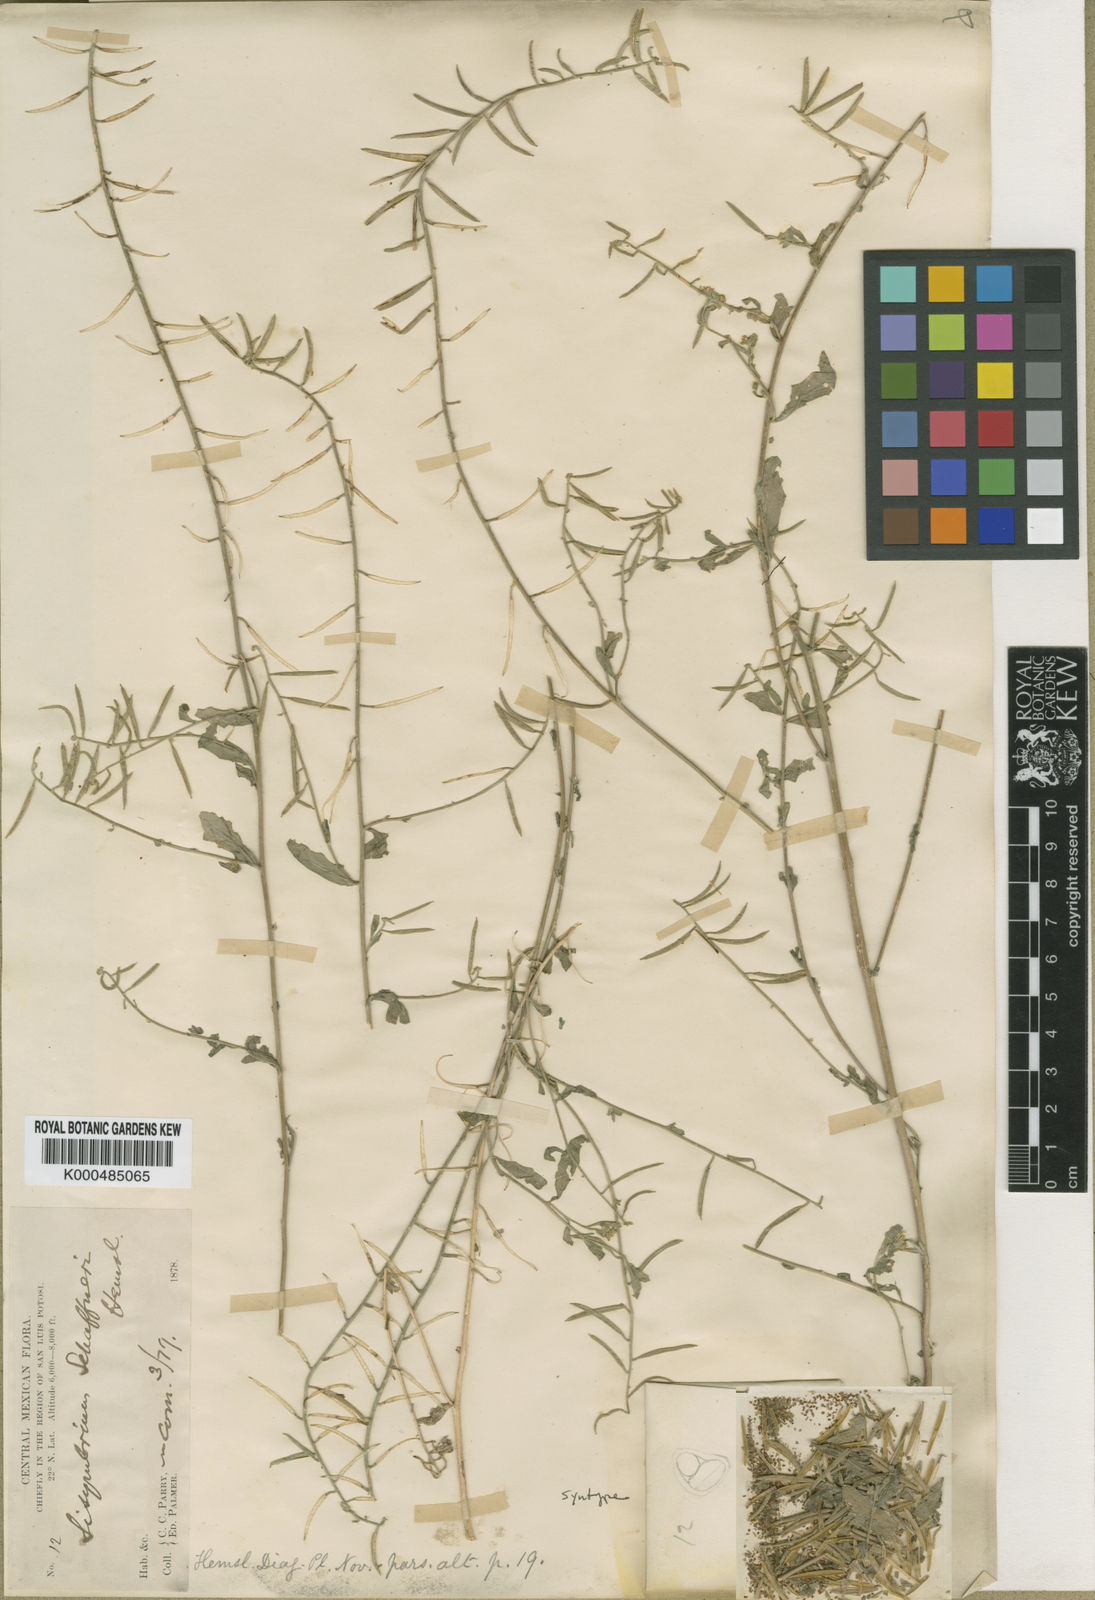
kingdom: Plantae
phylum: Tracheophyta
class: Magnoliopsida
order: Brassicales
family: Brassicaceae
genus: Halimolobos
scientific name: Halimolobos lasiolobus
